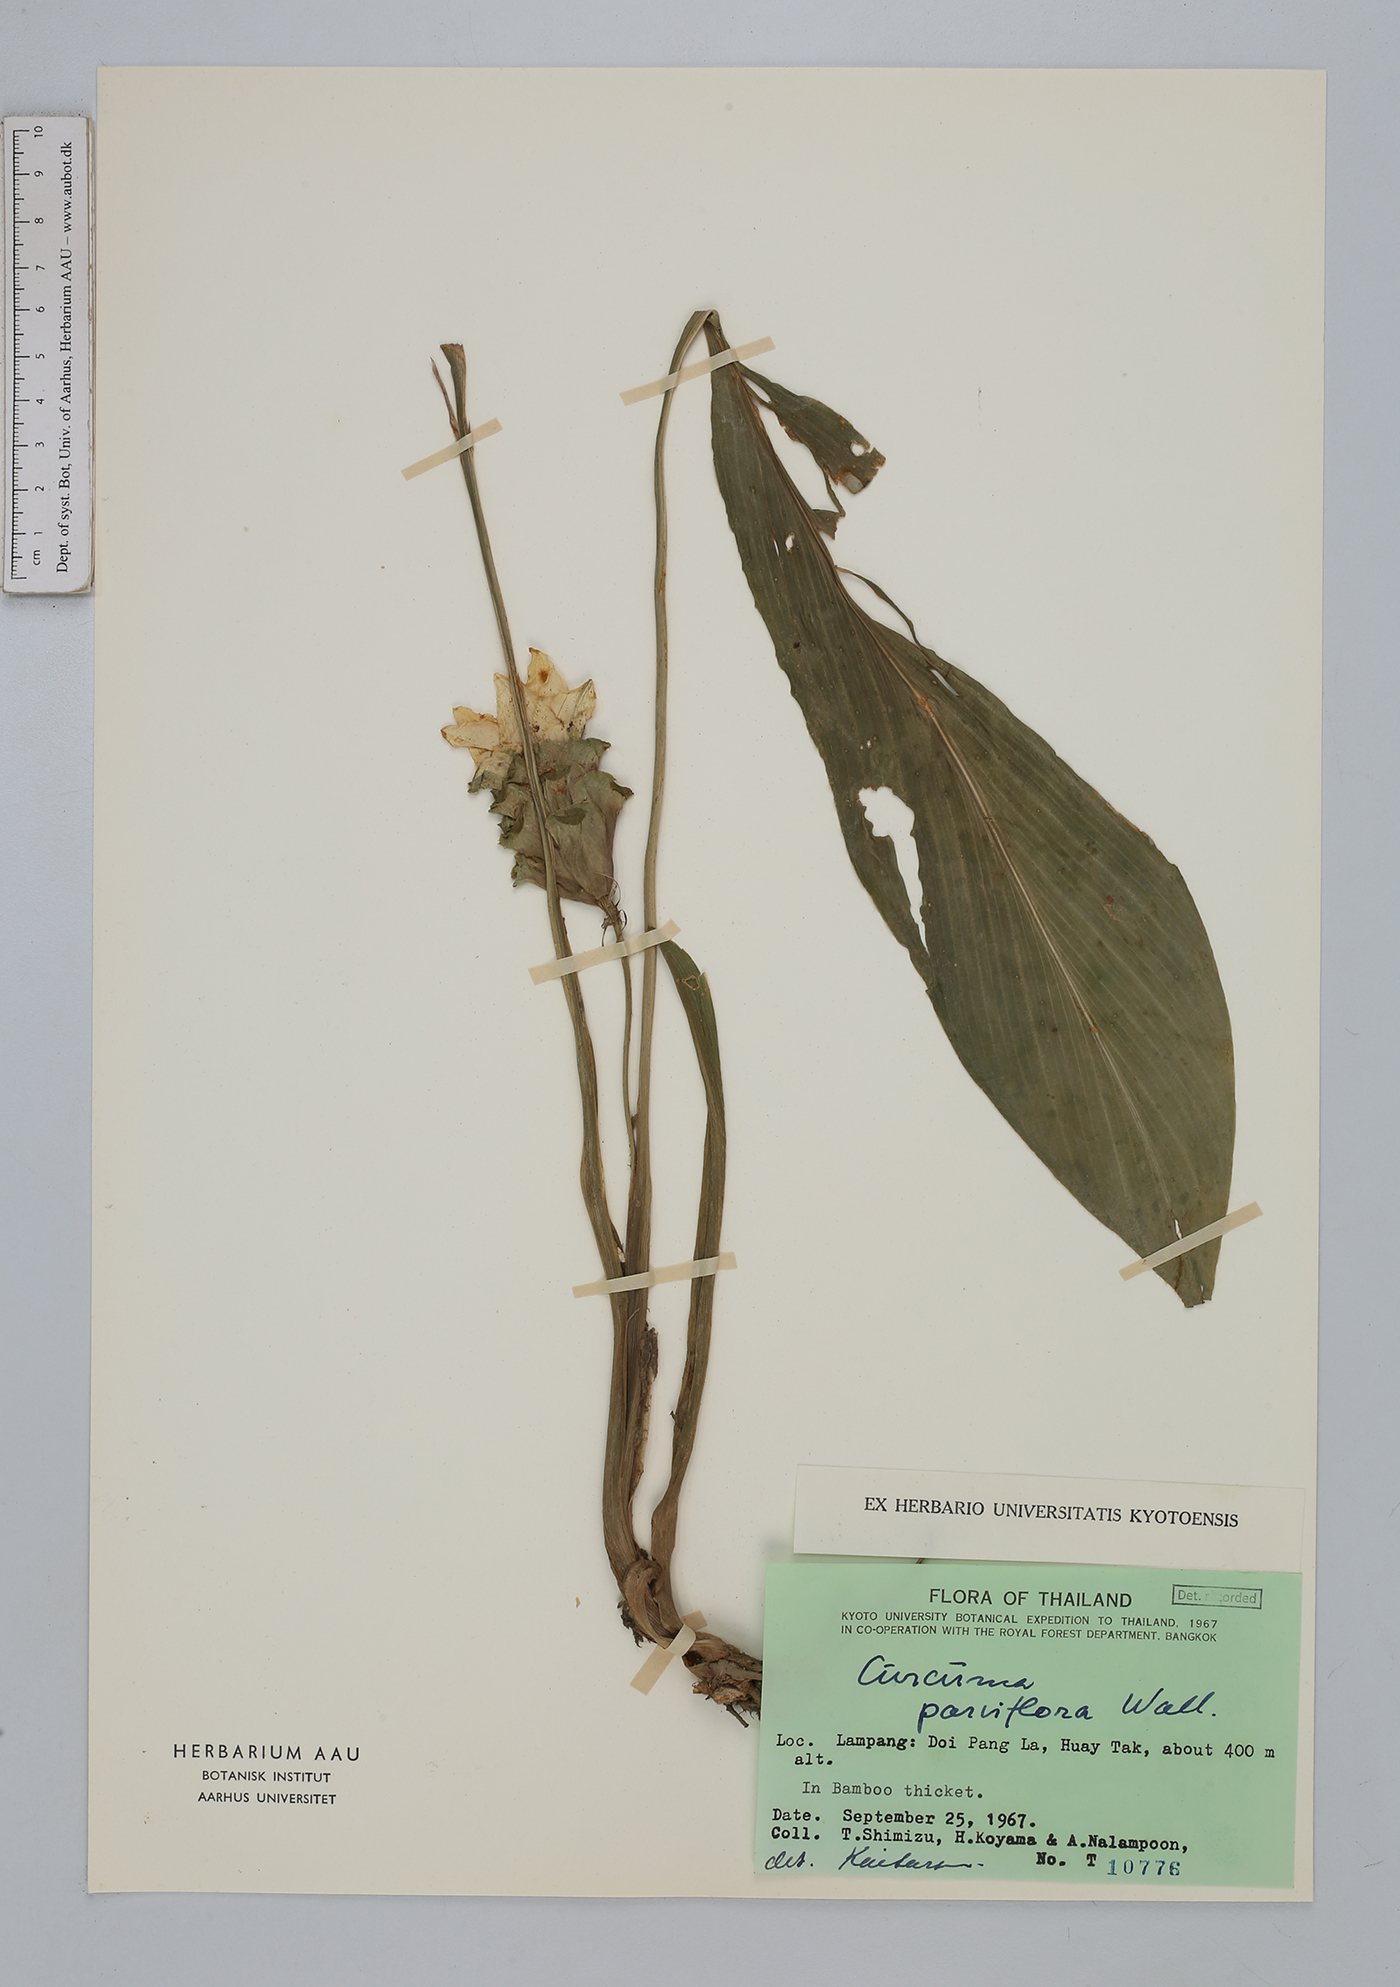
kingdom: Plantae
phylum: Tracheophyta
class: Liliopsida
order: Zingiberales
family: Zingiberaceae
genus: Curcuma
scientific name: Curcuma parviflora
